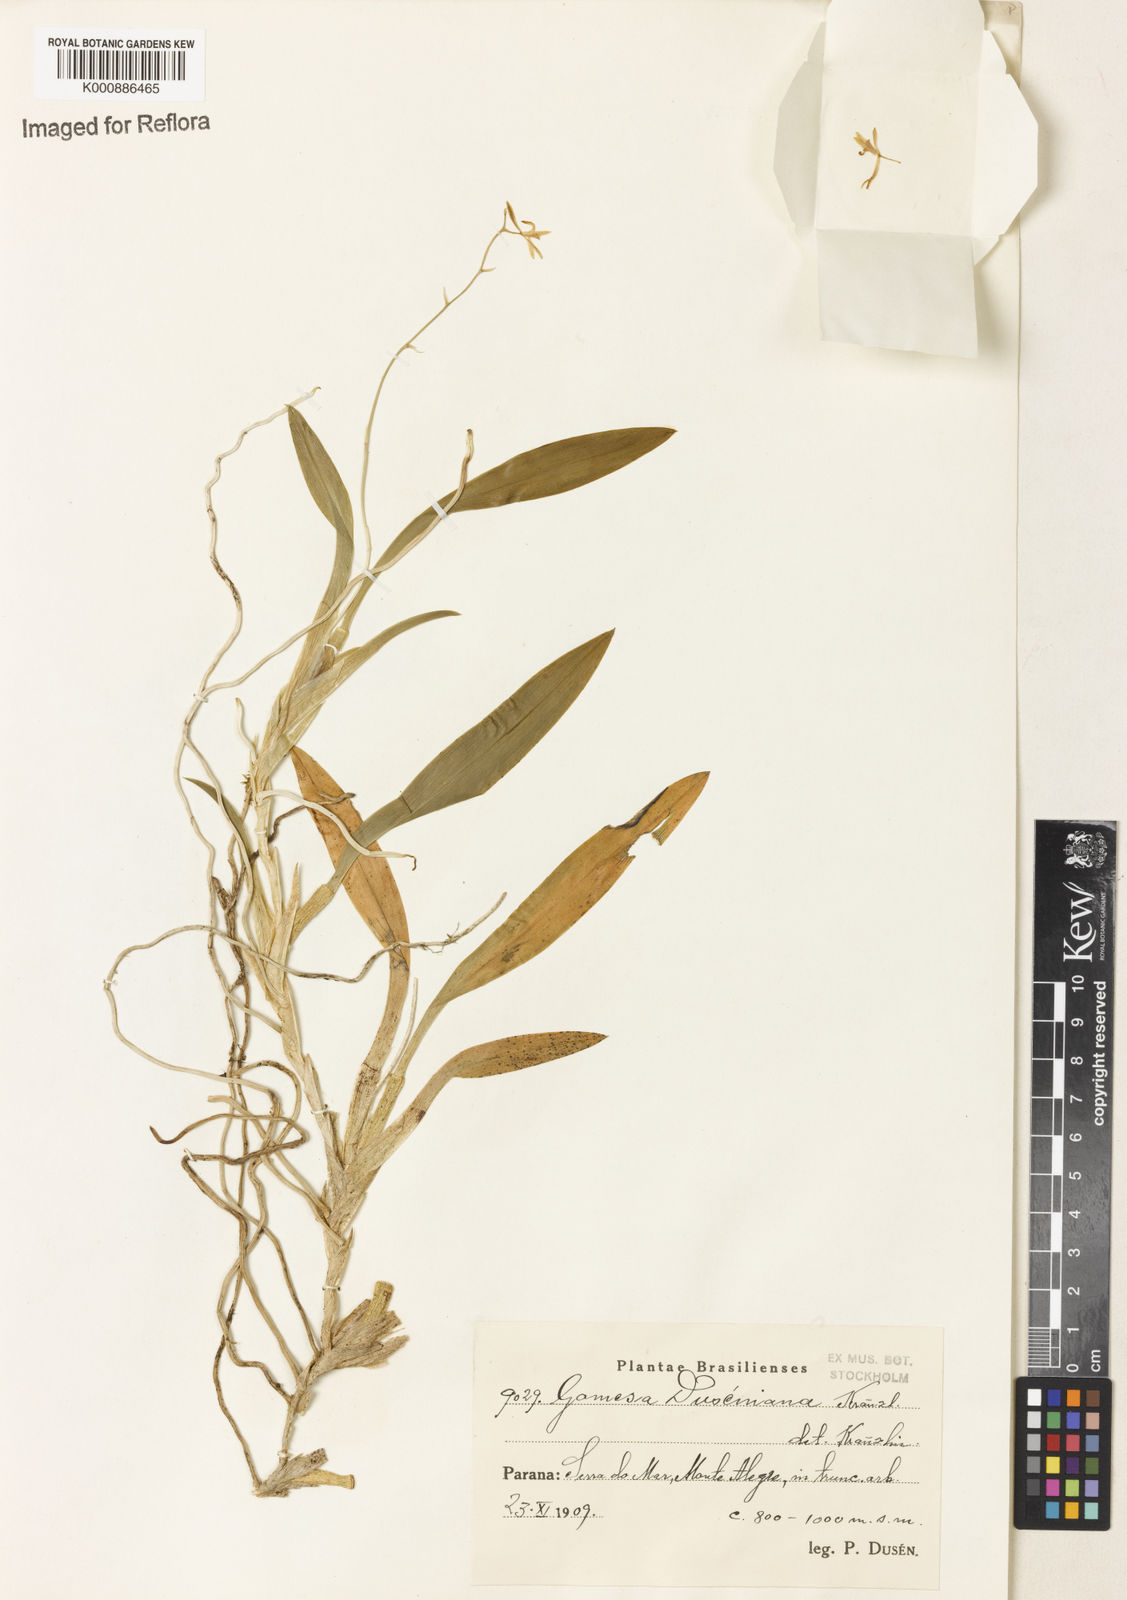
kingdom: Plantae
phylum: Tracheophyta
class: Liliopsida
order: Asparagales
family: Orchidaceae
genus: Gomesa
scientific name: Gomesa glaziovii
